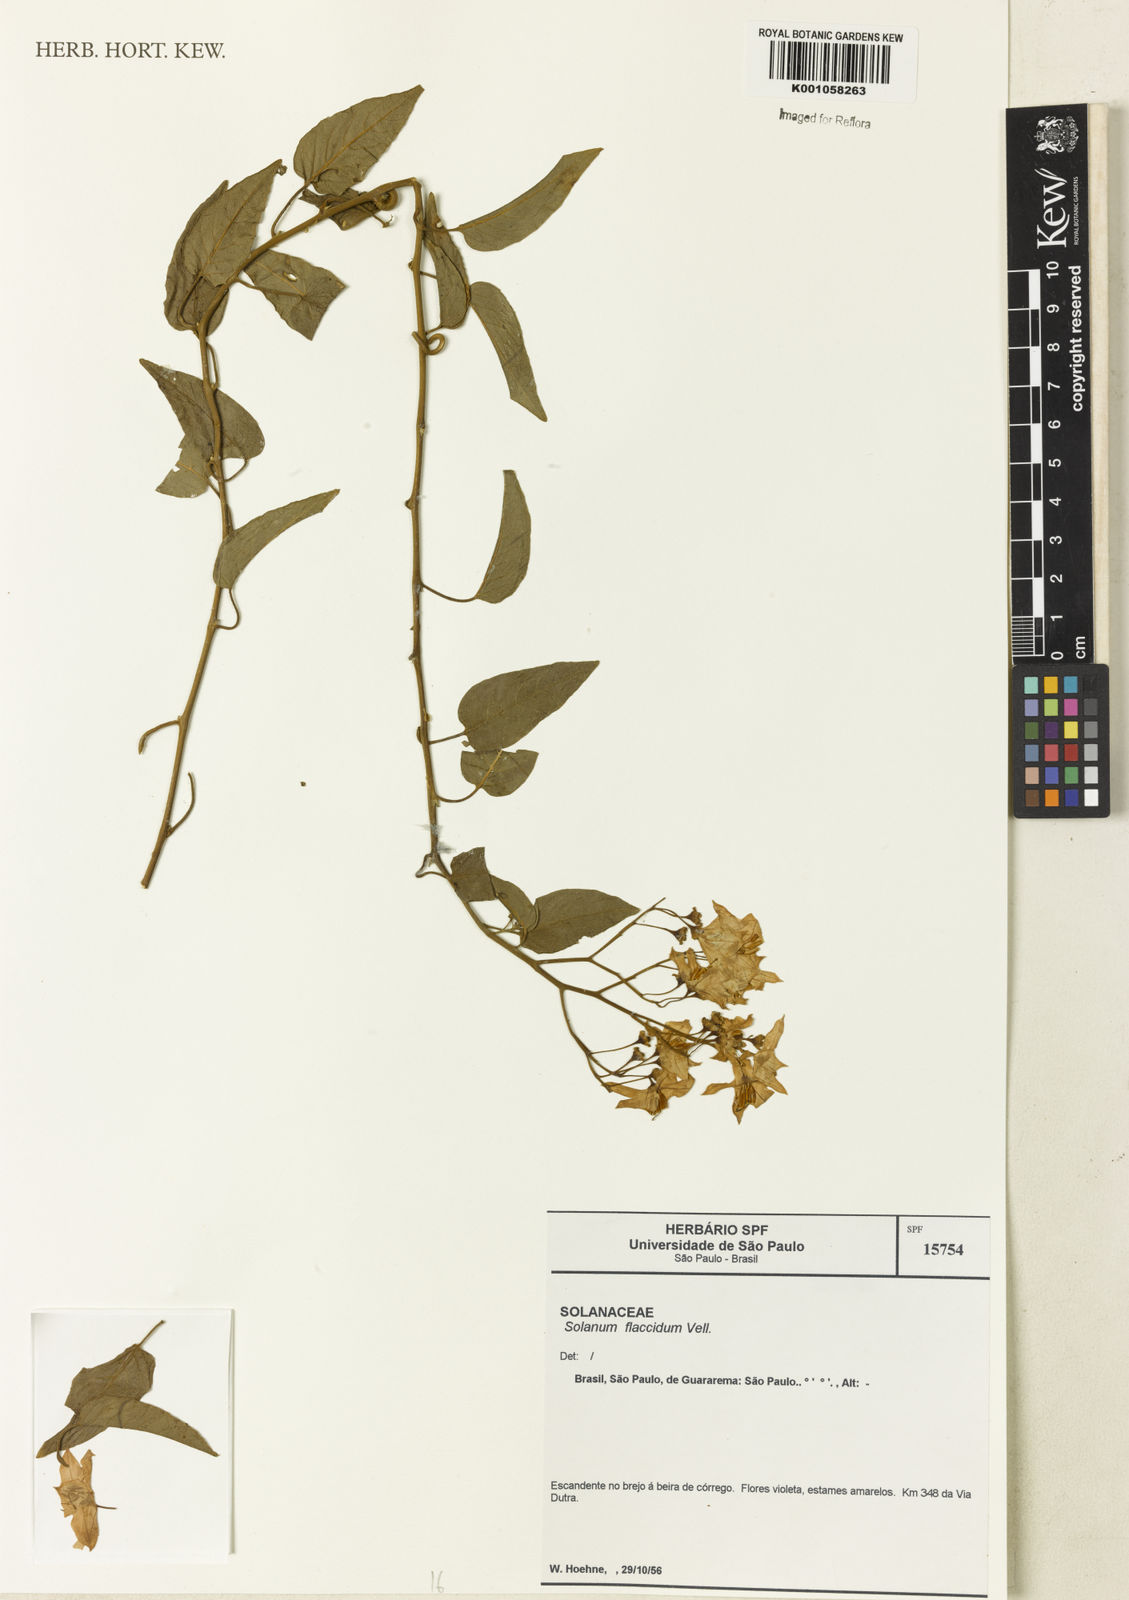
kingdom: Plantae
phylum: Tracheophyta
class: Magnoliopsida
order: Solanales
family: Solanaceae
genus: Solanum
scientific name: Solanum flaccidum
